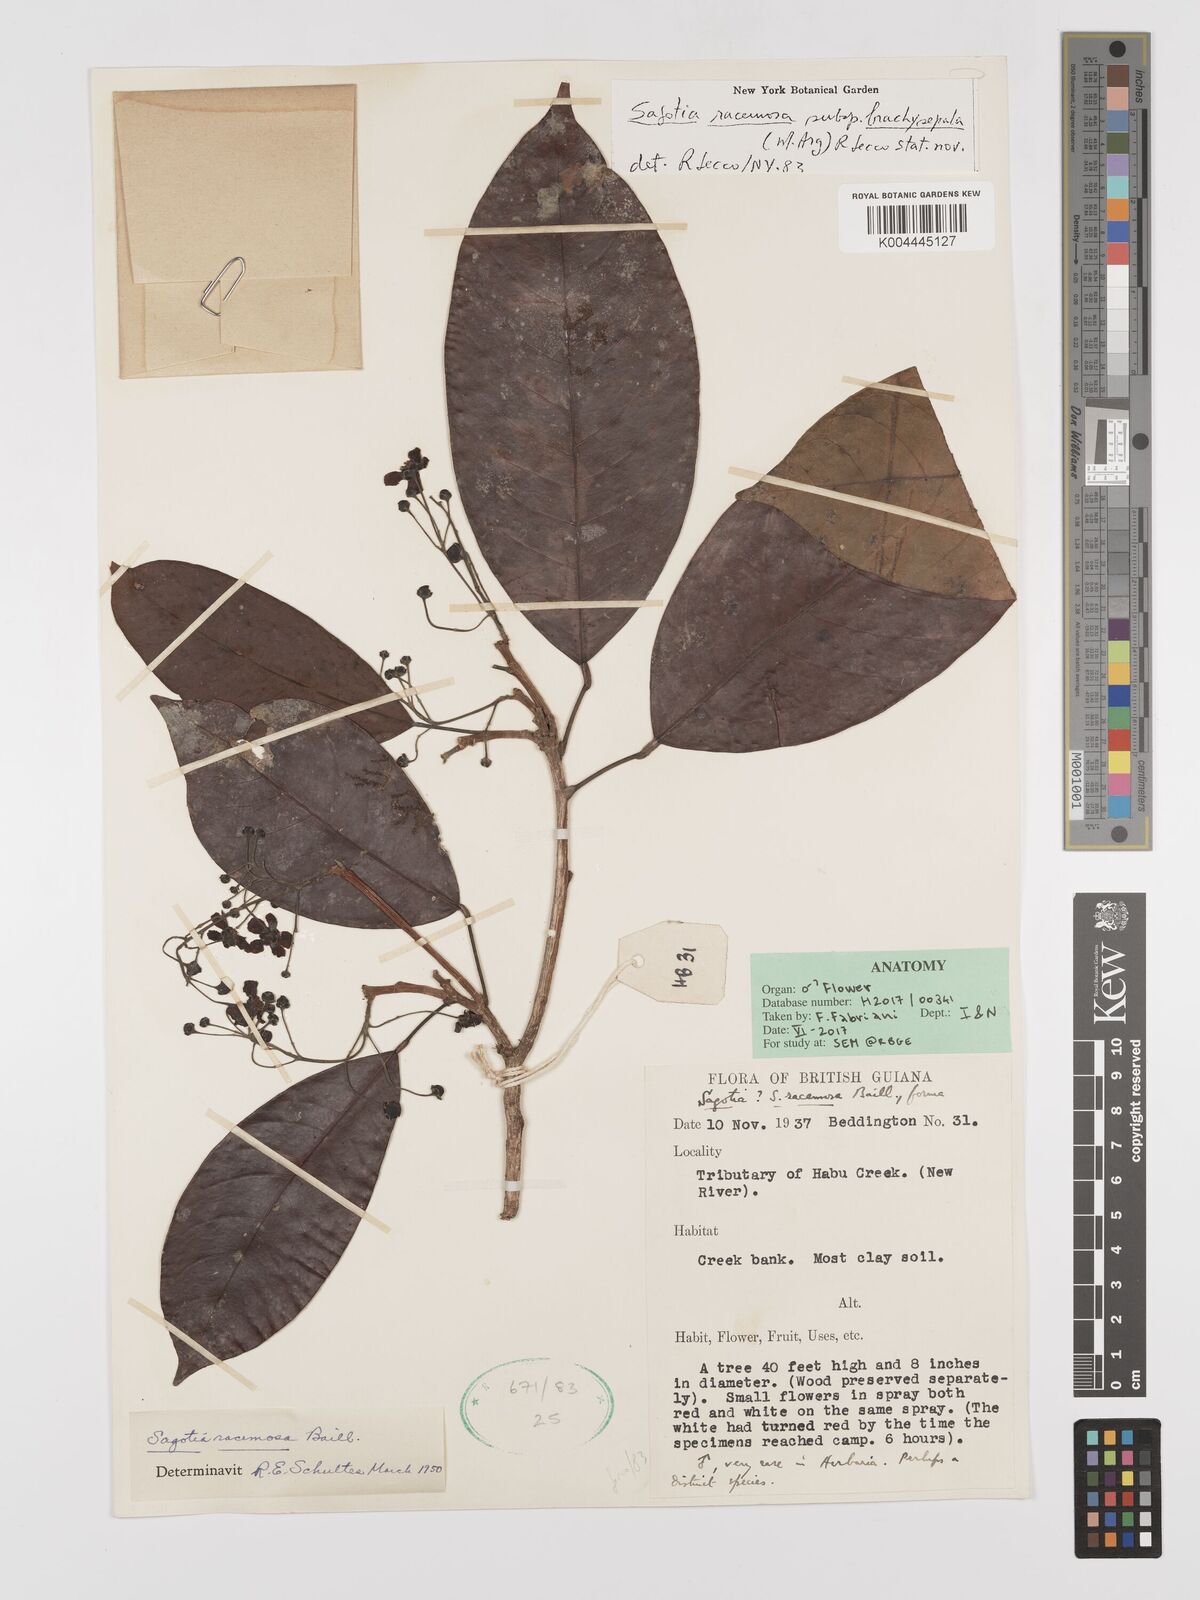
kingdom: Plantae
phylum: Tracheophyta
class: Magnoliopsida
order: Malpighiales
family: Euphorbiaceae
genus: Sagotia
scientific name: Sagotia racemosa
